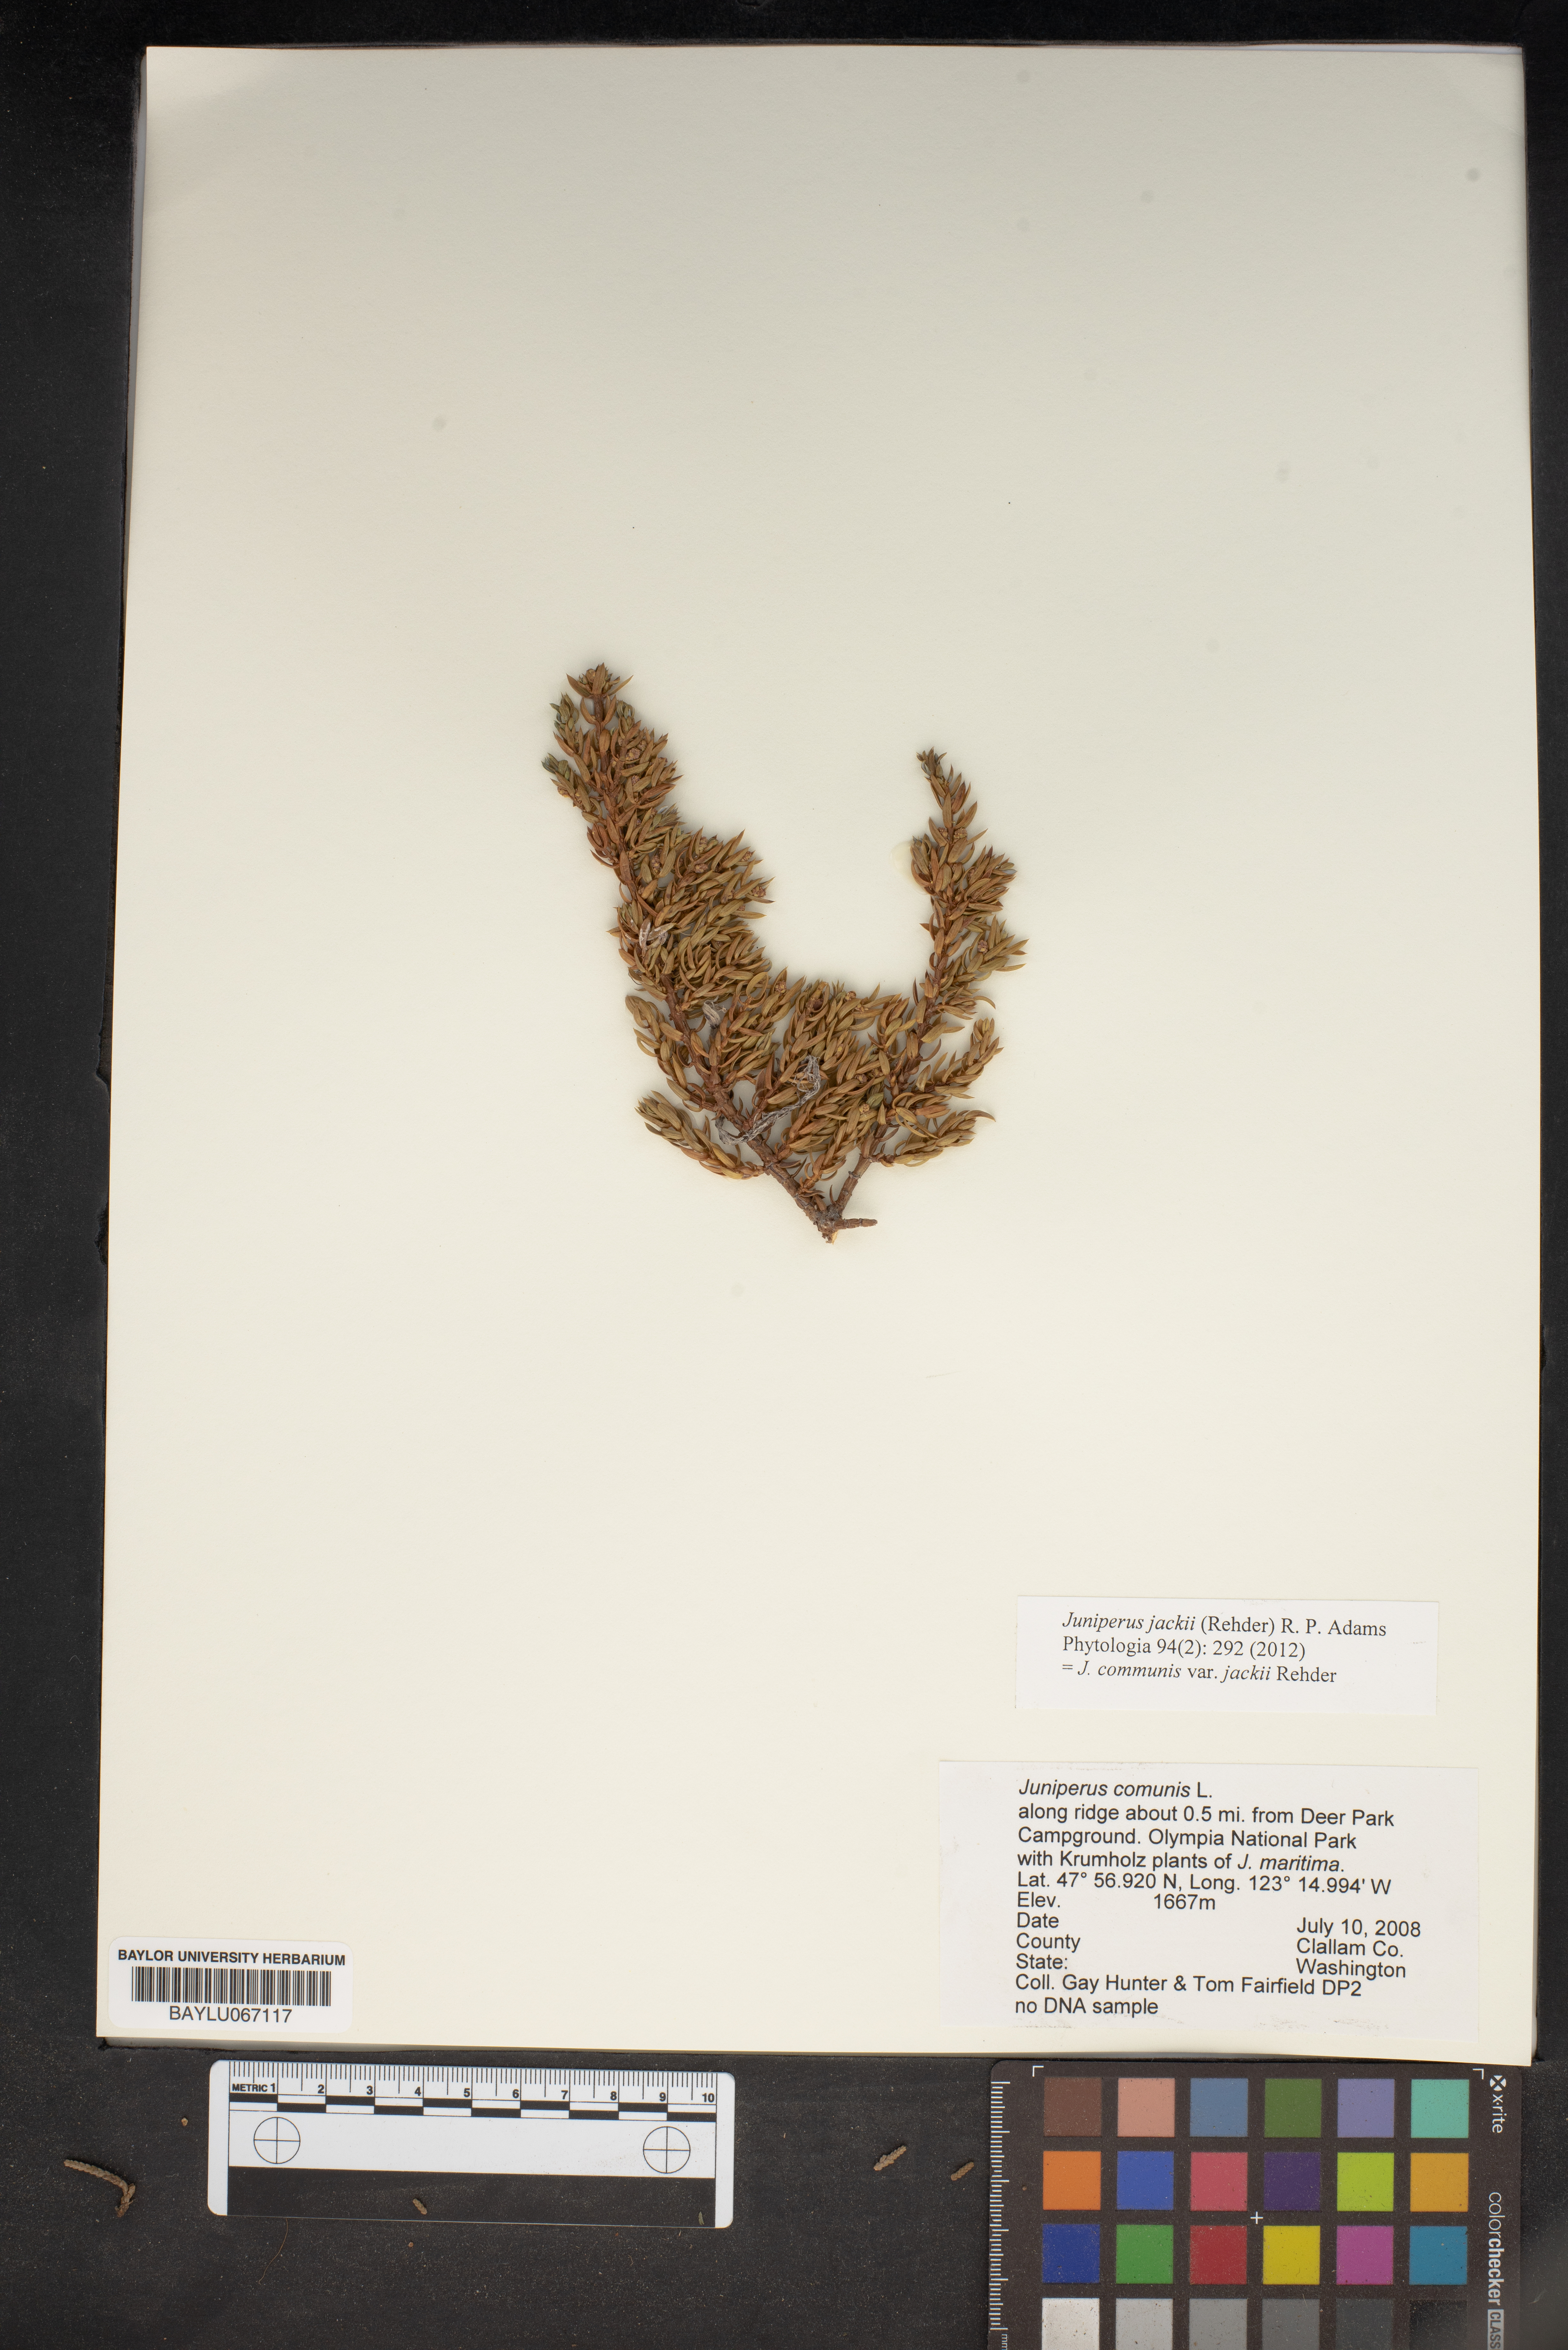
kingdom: Plantae
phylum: Tracheophyta
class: Pinopsida
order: Pinales
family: Cupressaceae
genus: Juniperus
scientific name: Juniperus communis
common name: Common juniper
